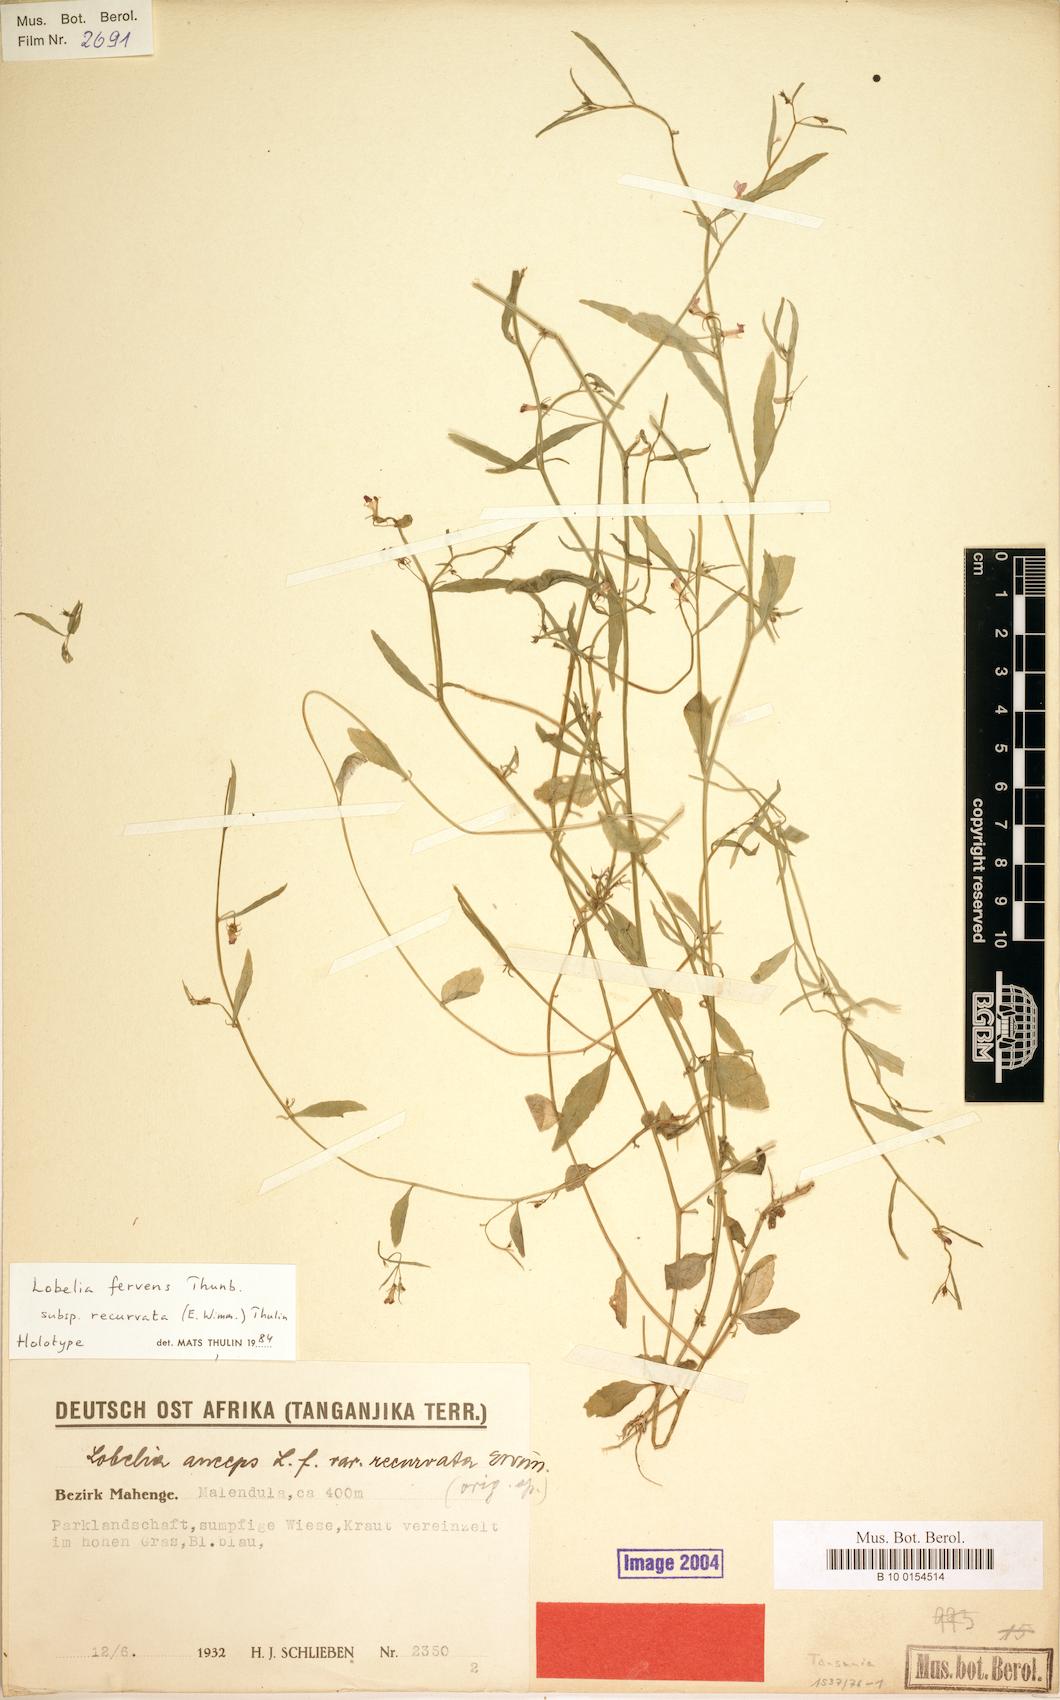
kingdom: Plantae
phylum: Tracheophyta
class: Magnoliopsida
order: Asterales
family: Campanulaceae
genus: Lobelia
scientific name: Lobelia fervens
